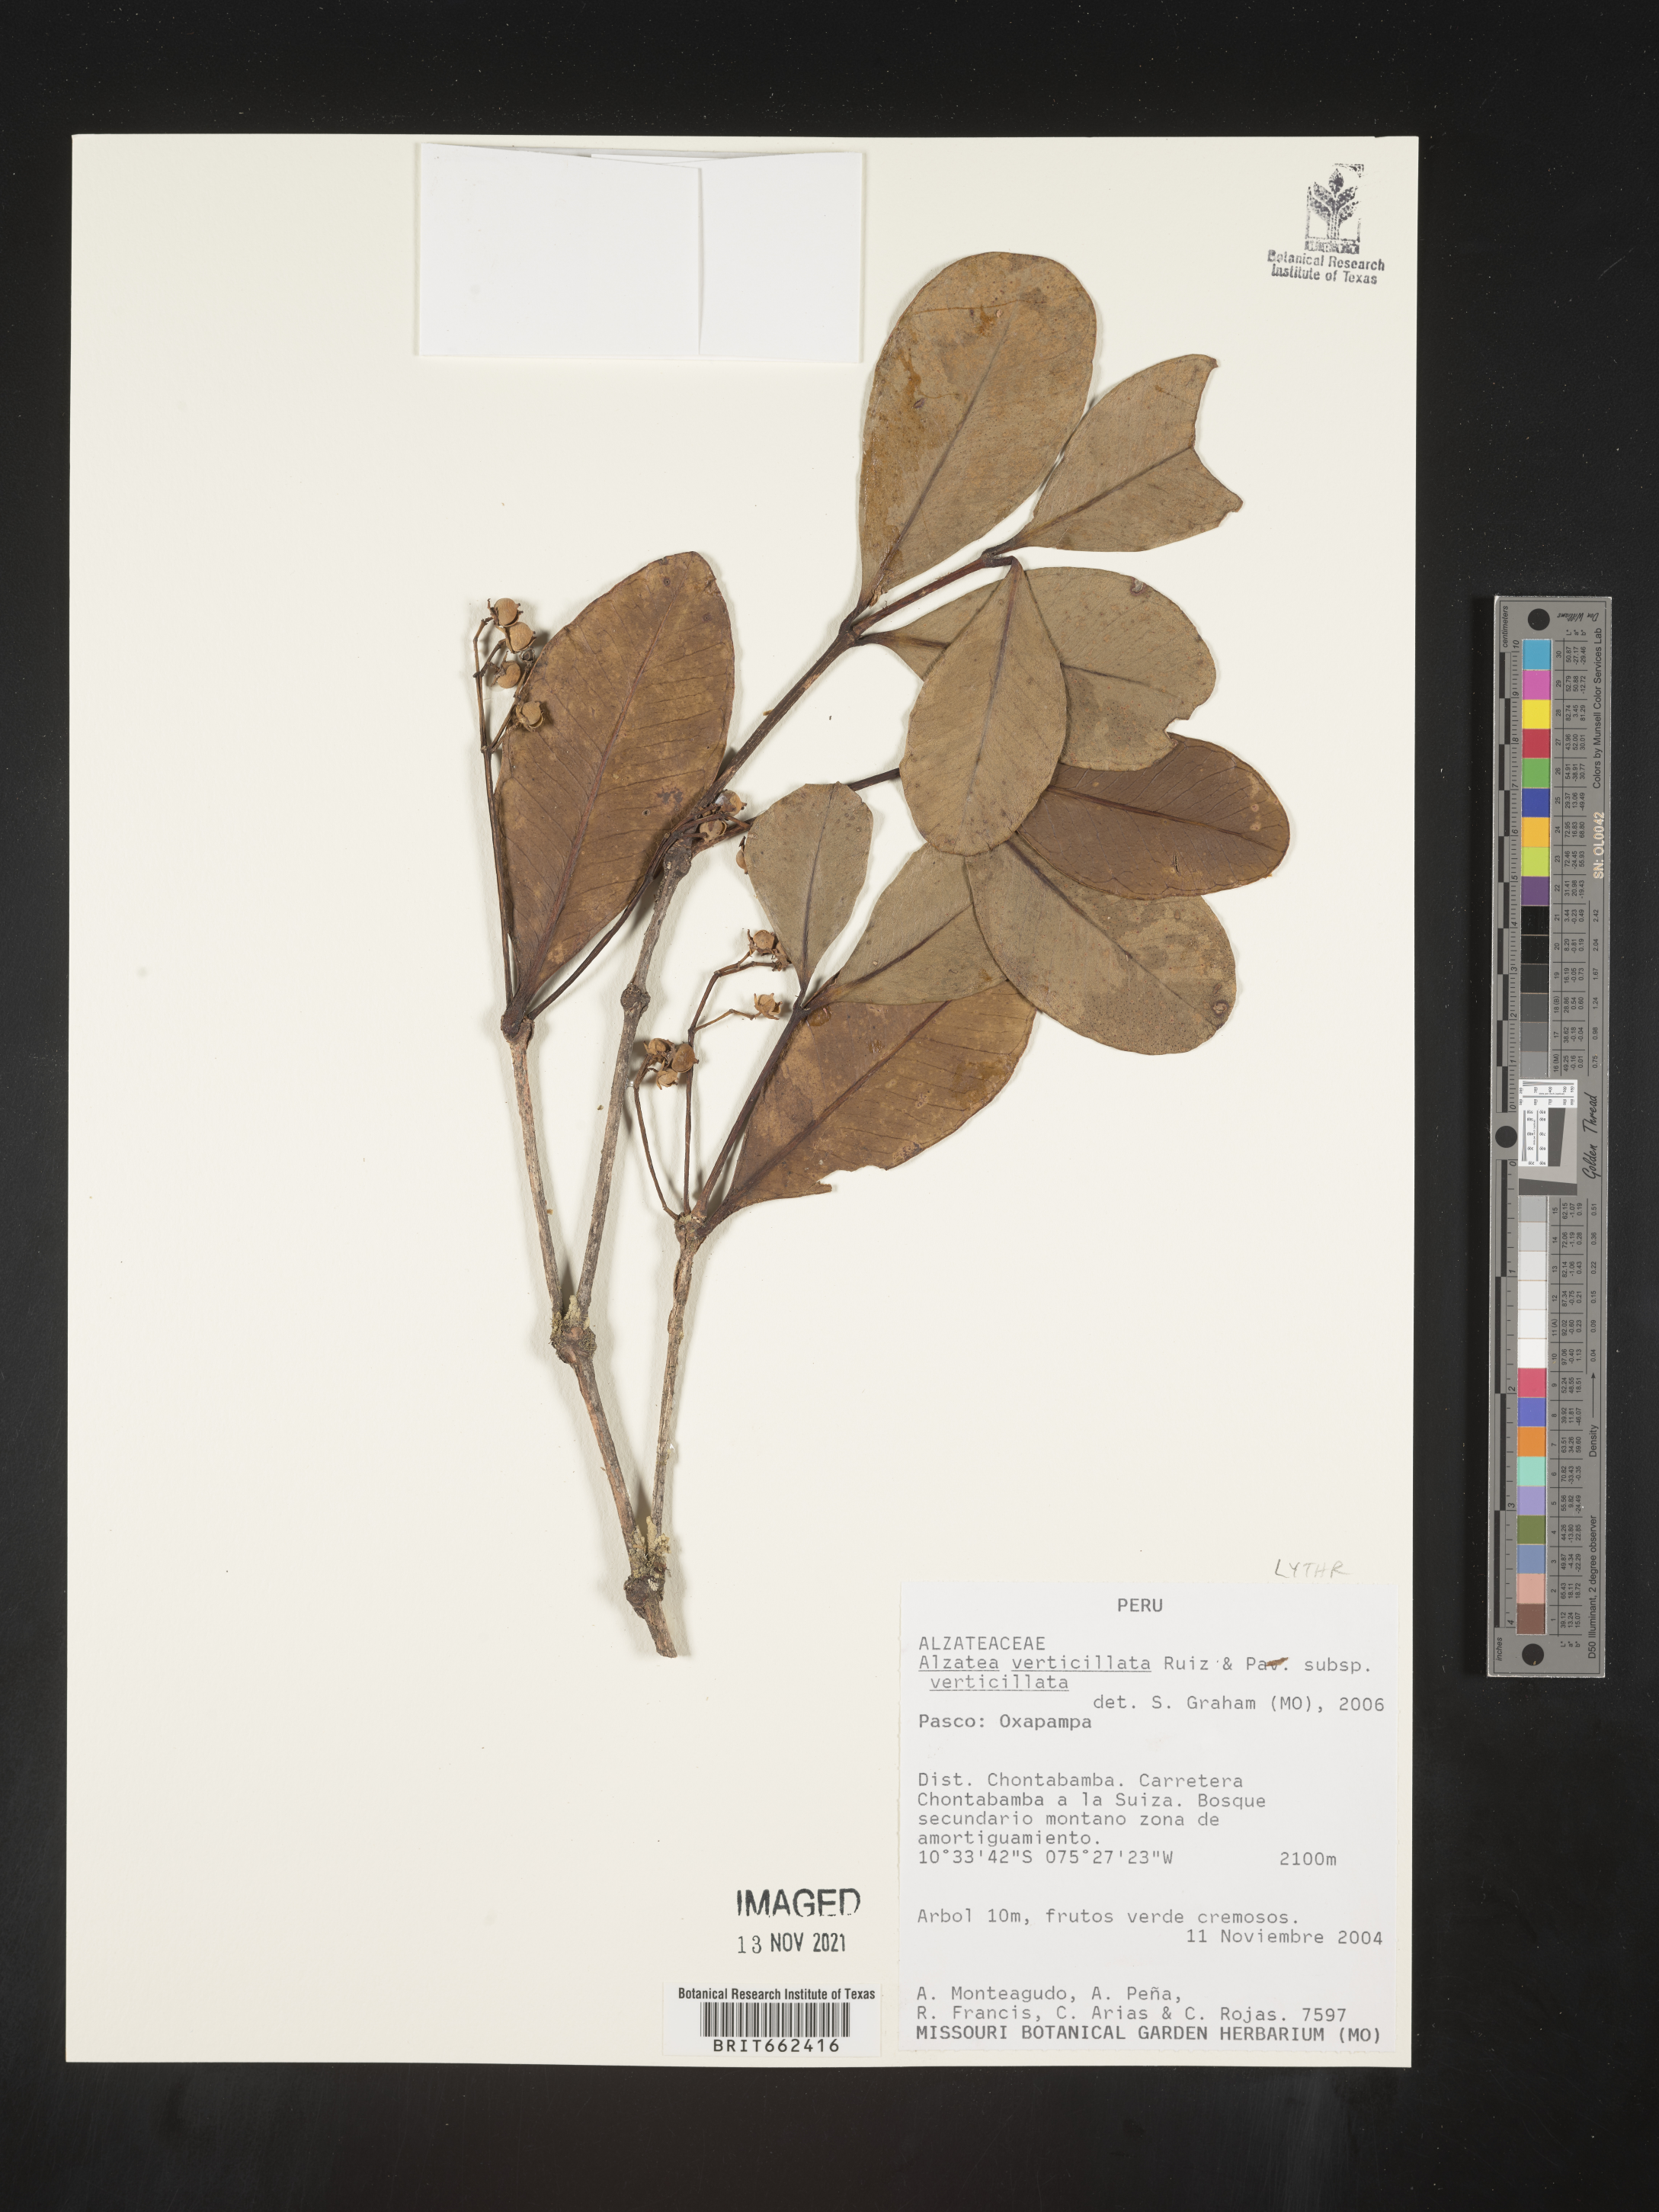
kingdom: Plantae
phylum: Tracheophyta
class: Magnoliopsida
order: Myrtales
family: Alzateaceae
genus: Alzatea
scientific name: Alzatea
